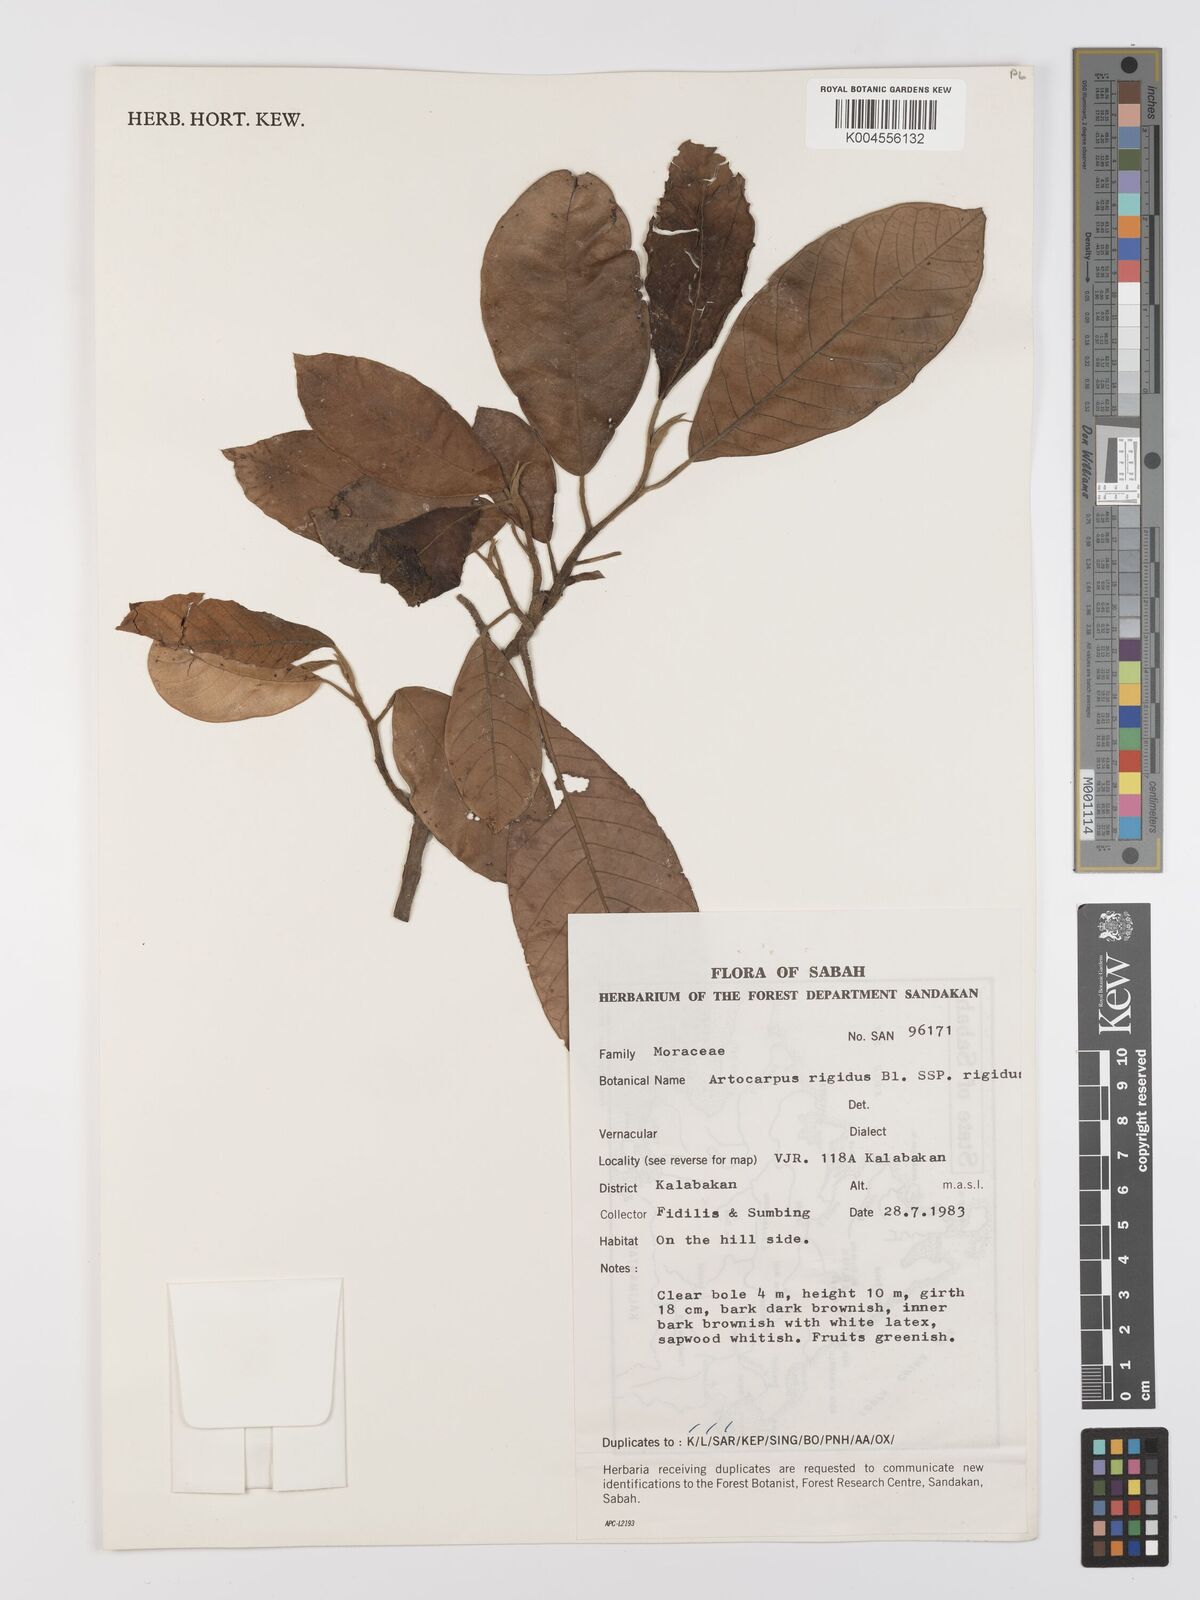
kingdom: Plantae
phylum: Tracheophyta
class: Magnoliopsida
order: Rosales
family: Moraceae
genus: Artocarpus
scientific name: Artocarpus
